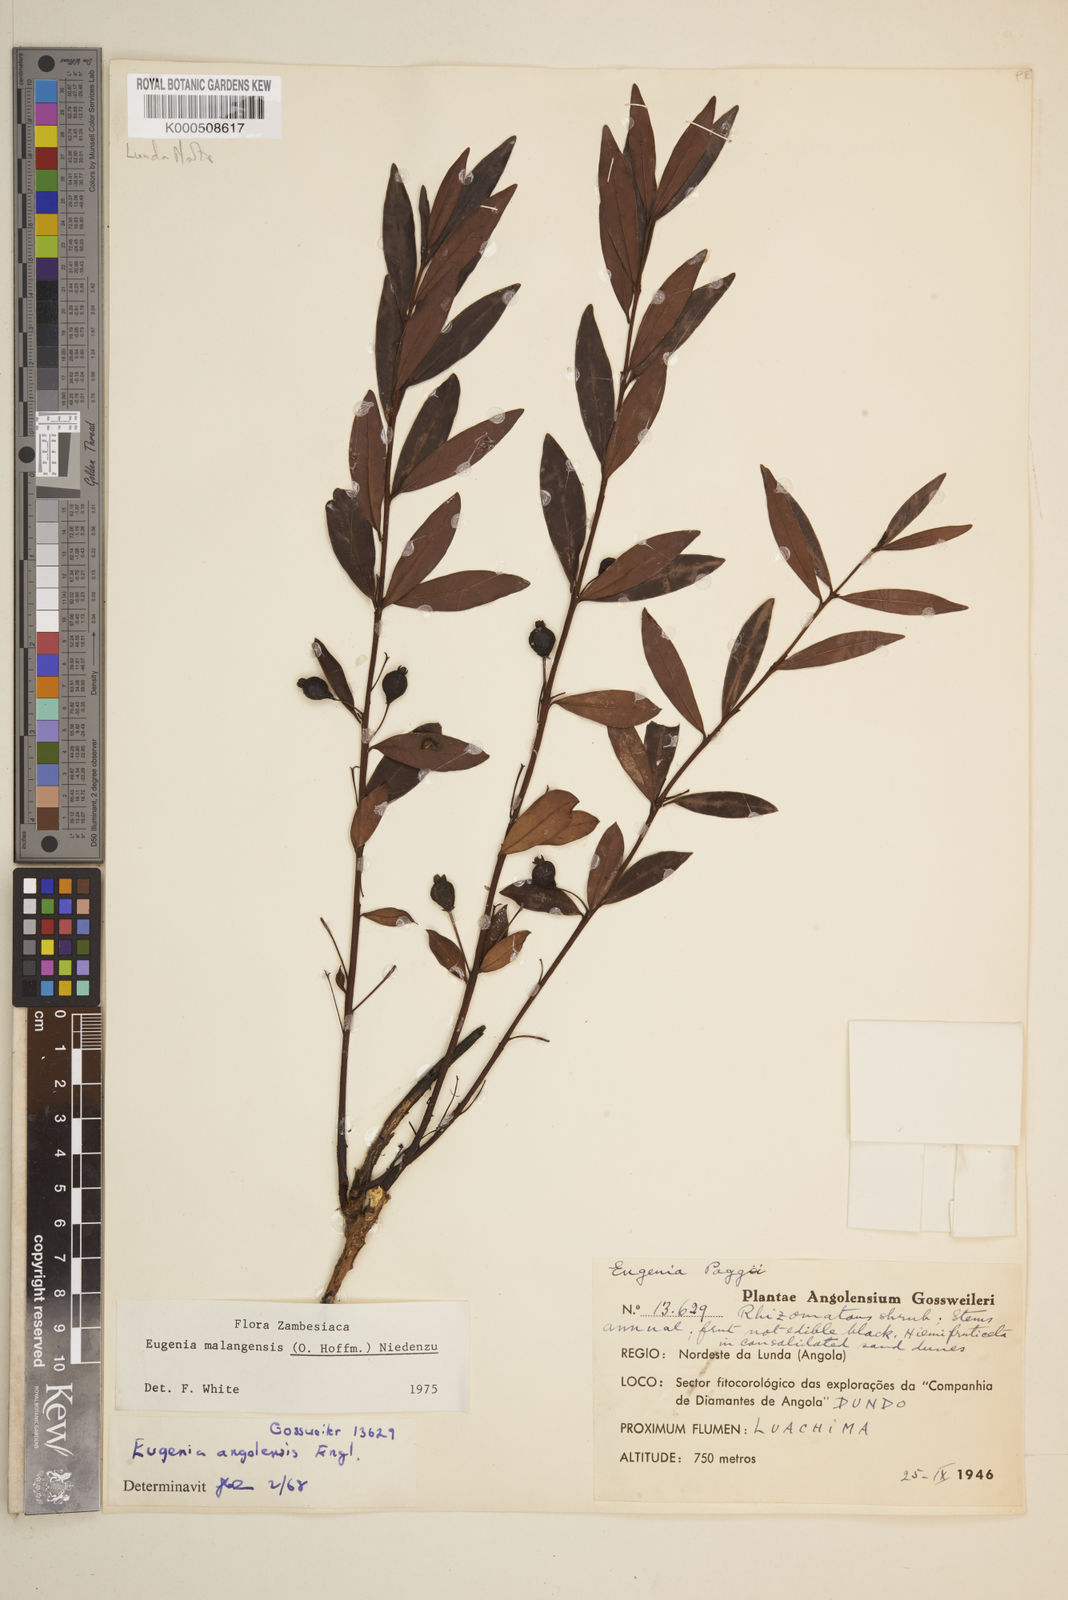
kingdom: Plantae
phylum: Tracheophyta
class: Magnoliopsida
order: Myrtales
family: Myrtaceae
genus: Eugenia
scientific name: Eugenia malangensis
